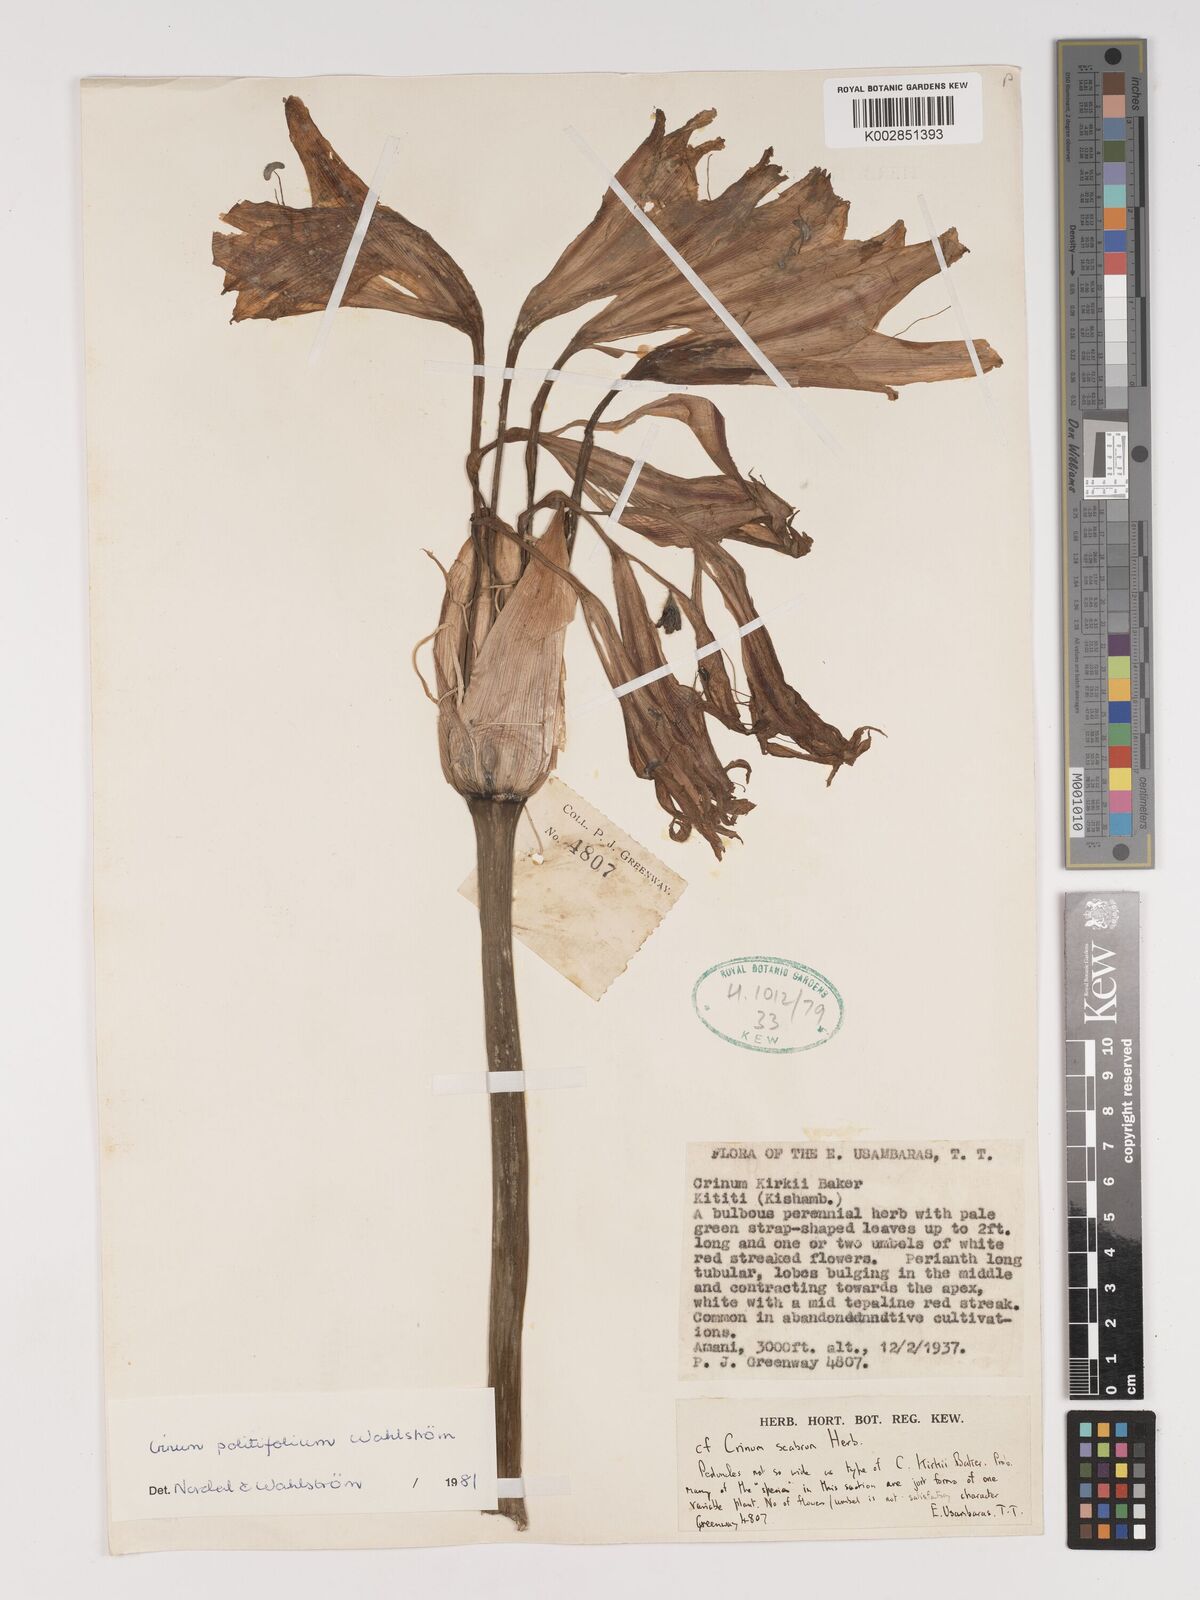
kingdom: Plantae
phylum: Tracheophyta
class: Liliopsida
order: Asparagales
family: Amaryllidaceae
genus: Crinum
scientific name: Crinum politifolium
